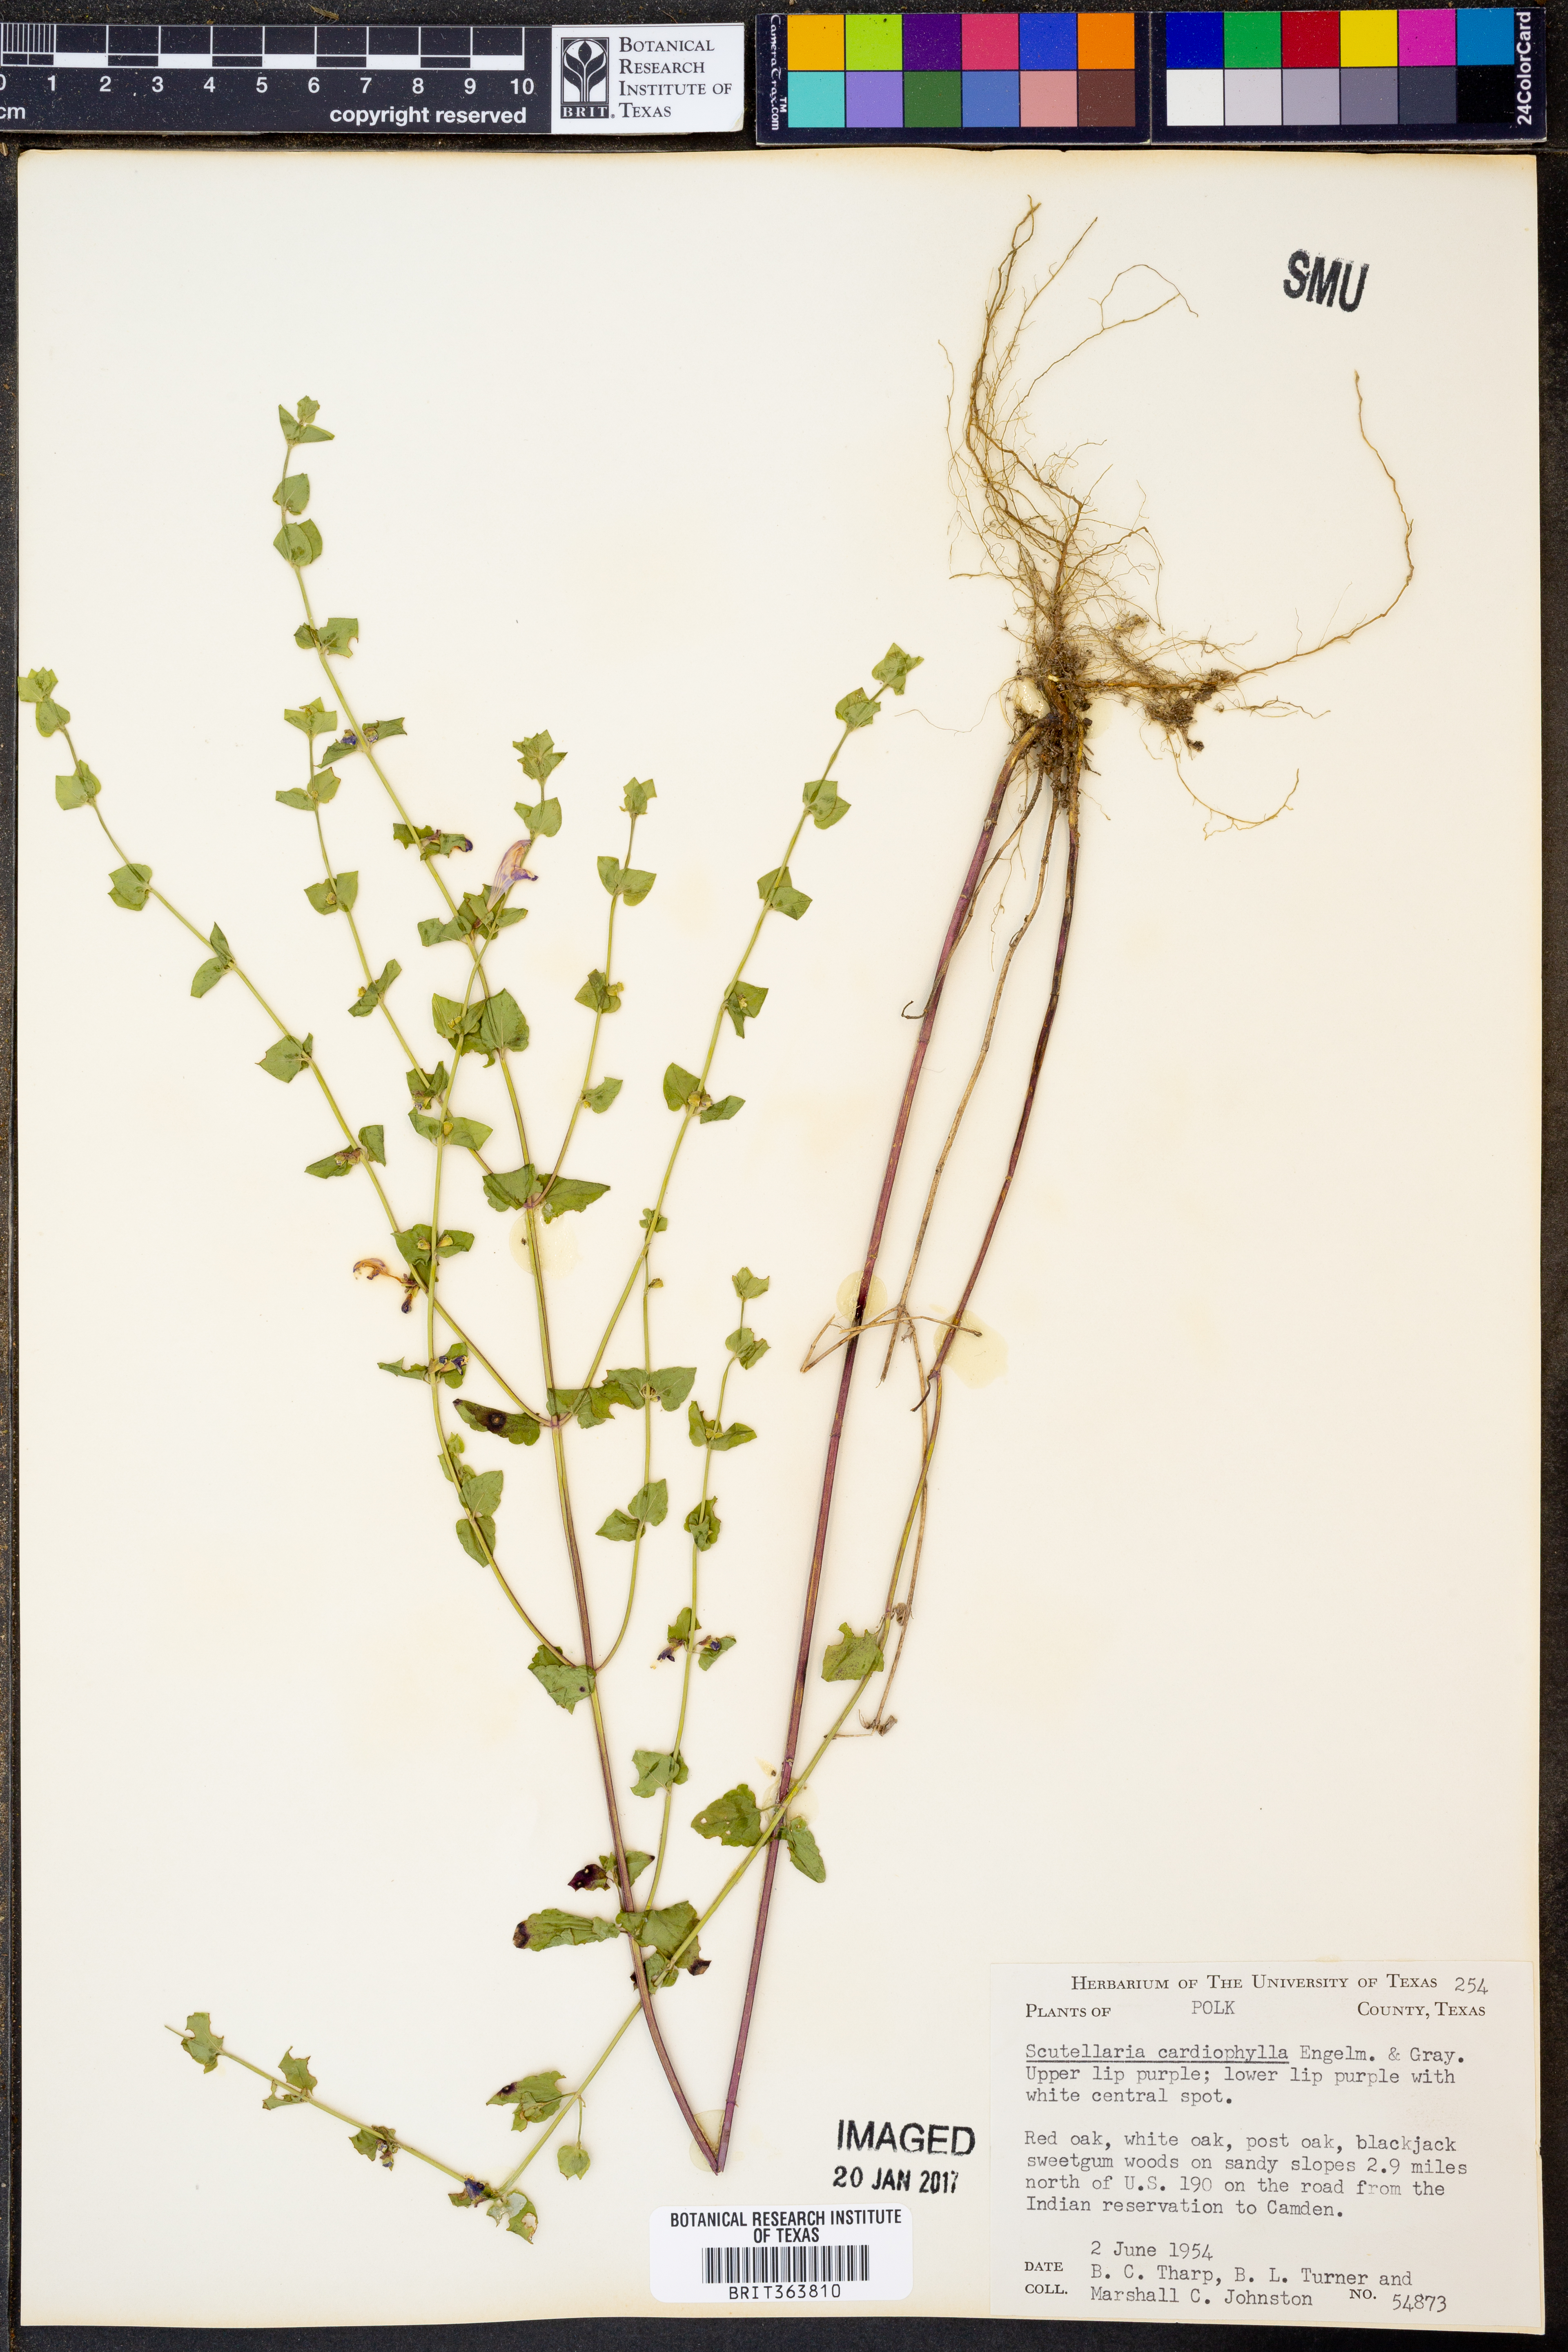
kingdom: Plantae
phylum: Tracheophyta
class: Magnoliopsida
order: Lamiales
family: Lamiaceae
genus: Scutellaria
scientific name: Scutellaria cardiophylla
